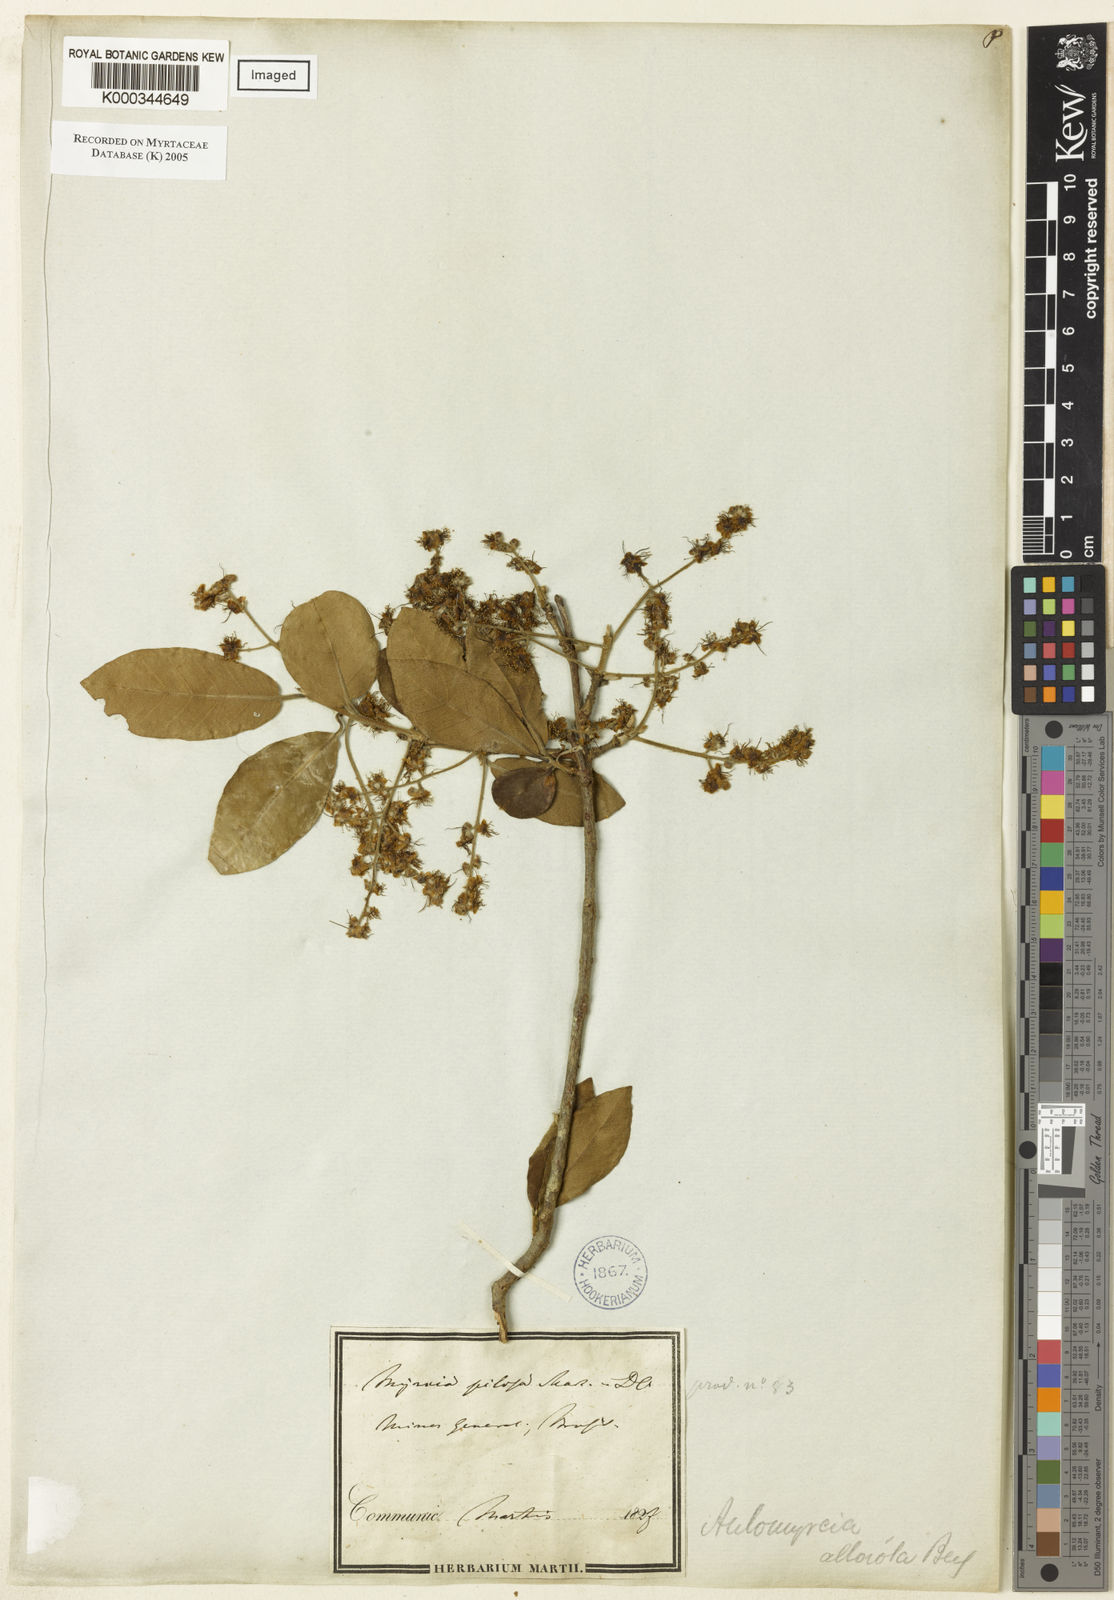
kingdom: Plantae
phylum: Tracheophyta
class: Magnoliopsida
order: Myrtales
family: Myrtaceae
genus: Myrcia
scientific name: Myrcia tomentosa
